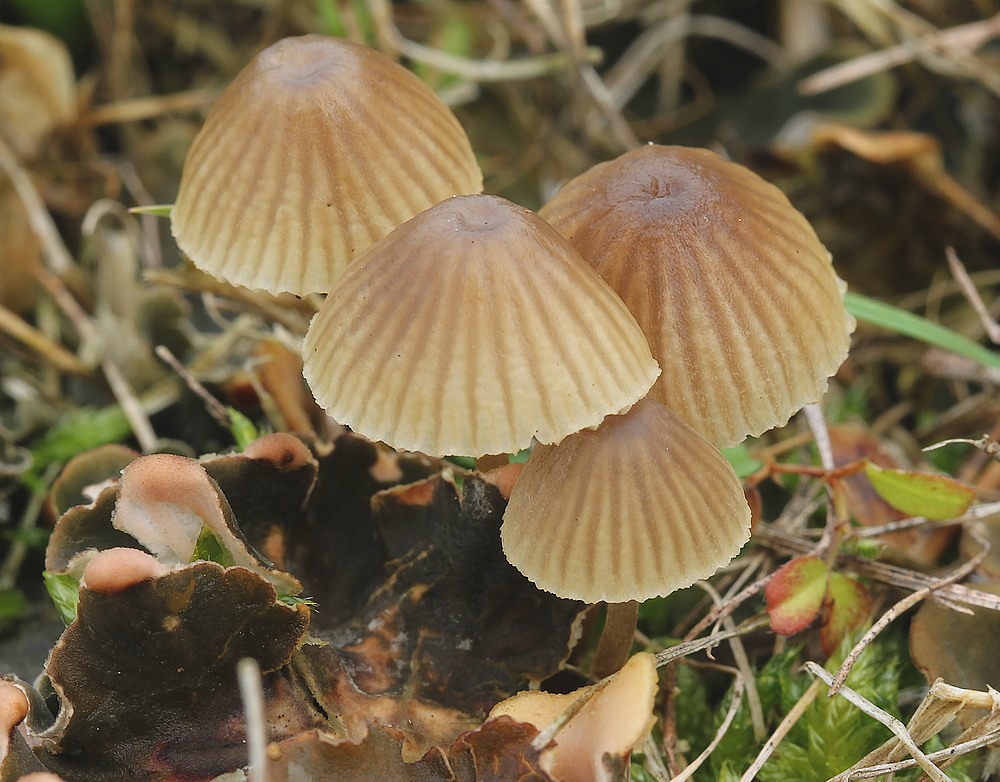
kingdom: Fungi
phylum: Basidiomycota
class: Agaricomycetes
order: Agaricales
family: Mycenaceae
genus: Mycena
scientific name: Mycena
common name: huesvamp
